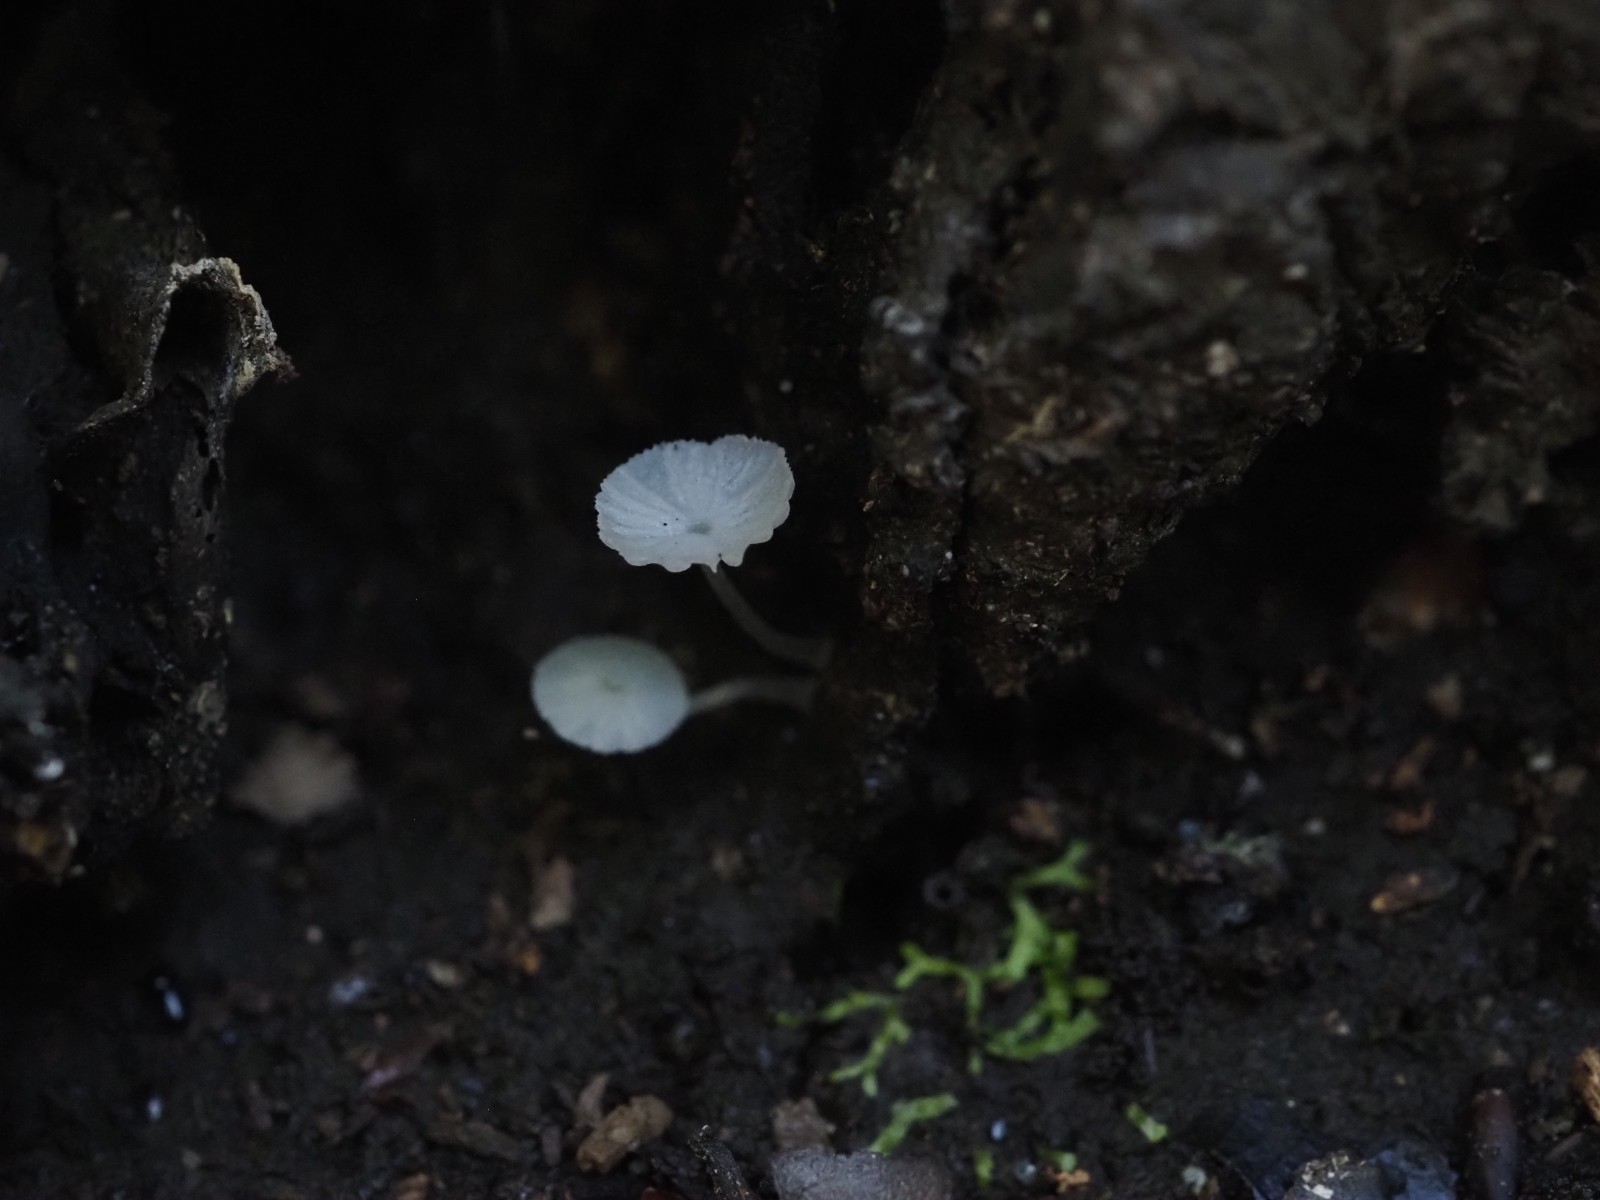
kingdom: Fungi
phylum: Basidiomycota
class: Agaricomycetes
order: Agaricales
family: Tricholomataceae
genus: Delicatula
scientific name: Delicatula integrella
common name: slørhuesvamp
